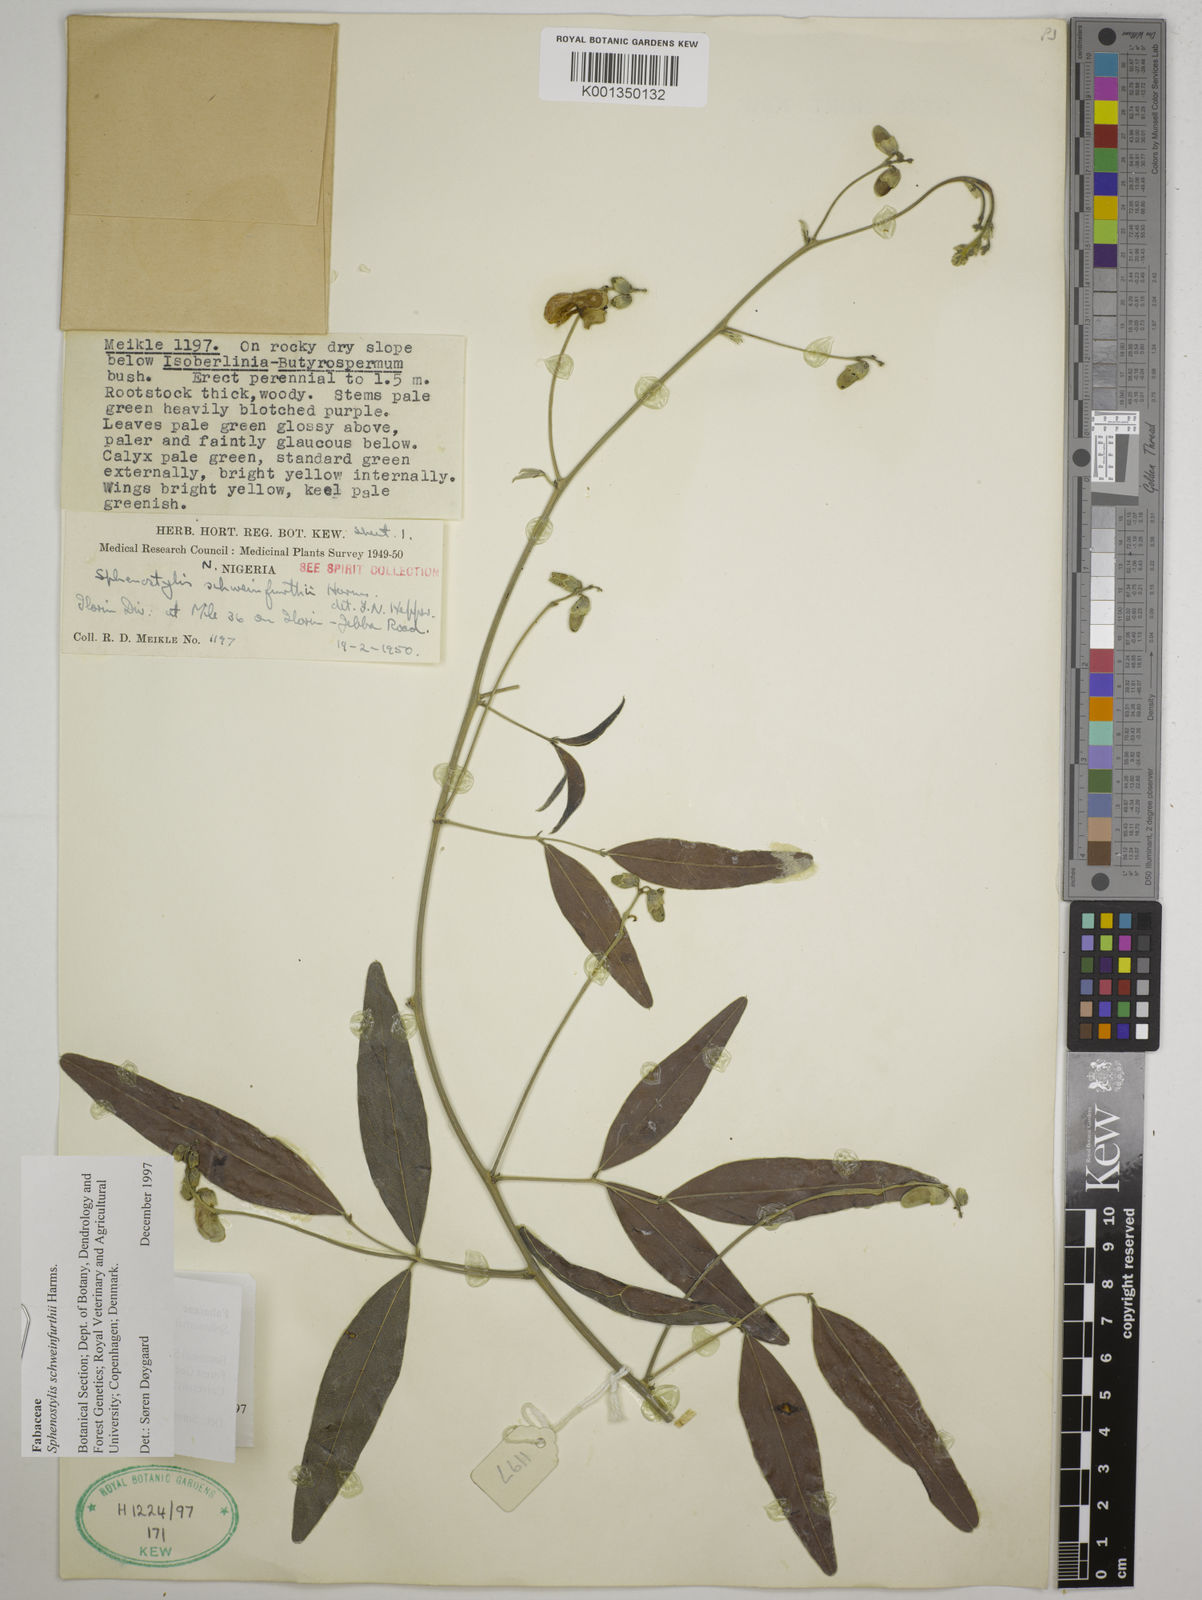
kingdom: Plantae
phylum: Tracheophyta
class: Magnoliopsida
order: Fabales
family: Fabaceae
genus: Sphenostylis
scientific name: Sphenostylis schweinfurthii
